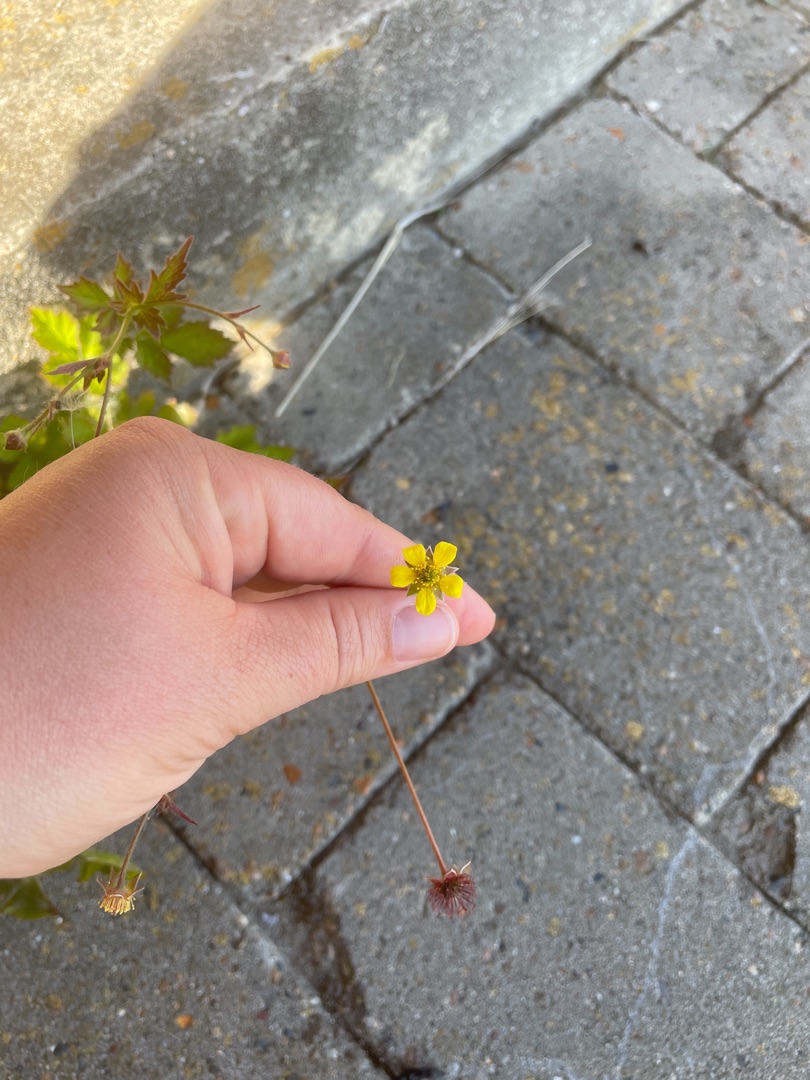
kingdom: Plantae
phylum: Tracheophyta
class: Magnoliopsida
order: Rosales
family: Rosaceae
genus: Geum
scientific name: Geum urbanum
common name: Feber-nellikerod
